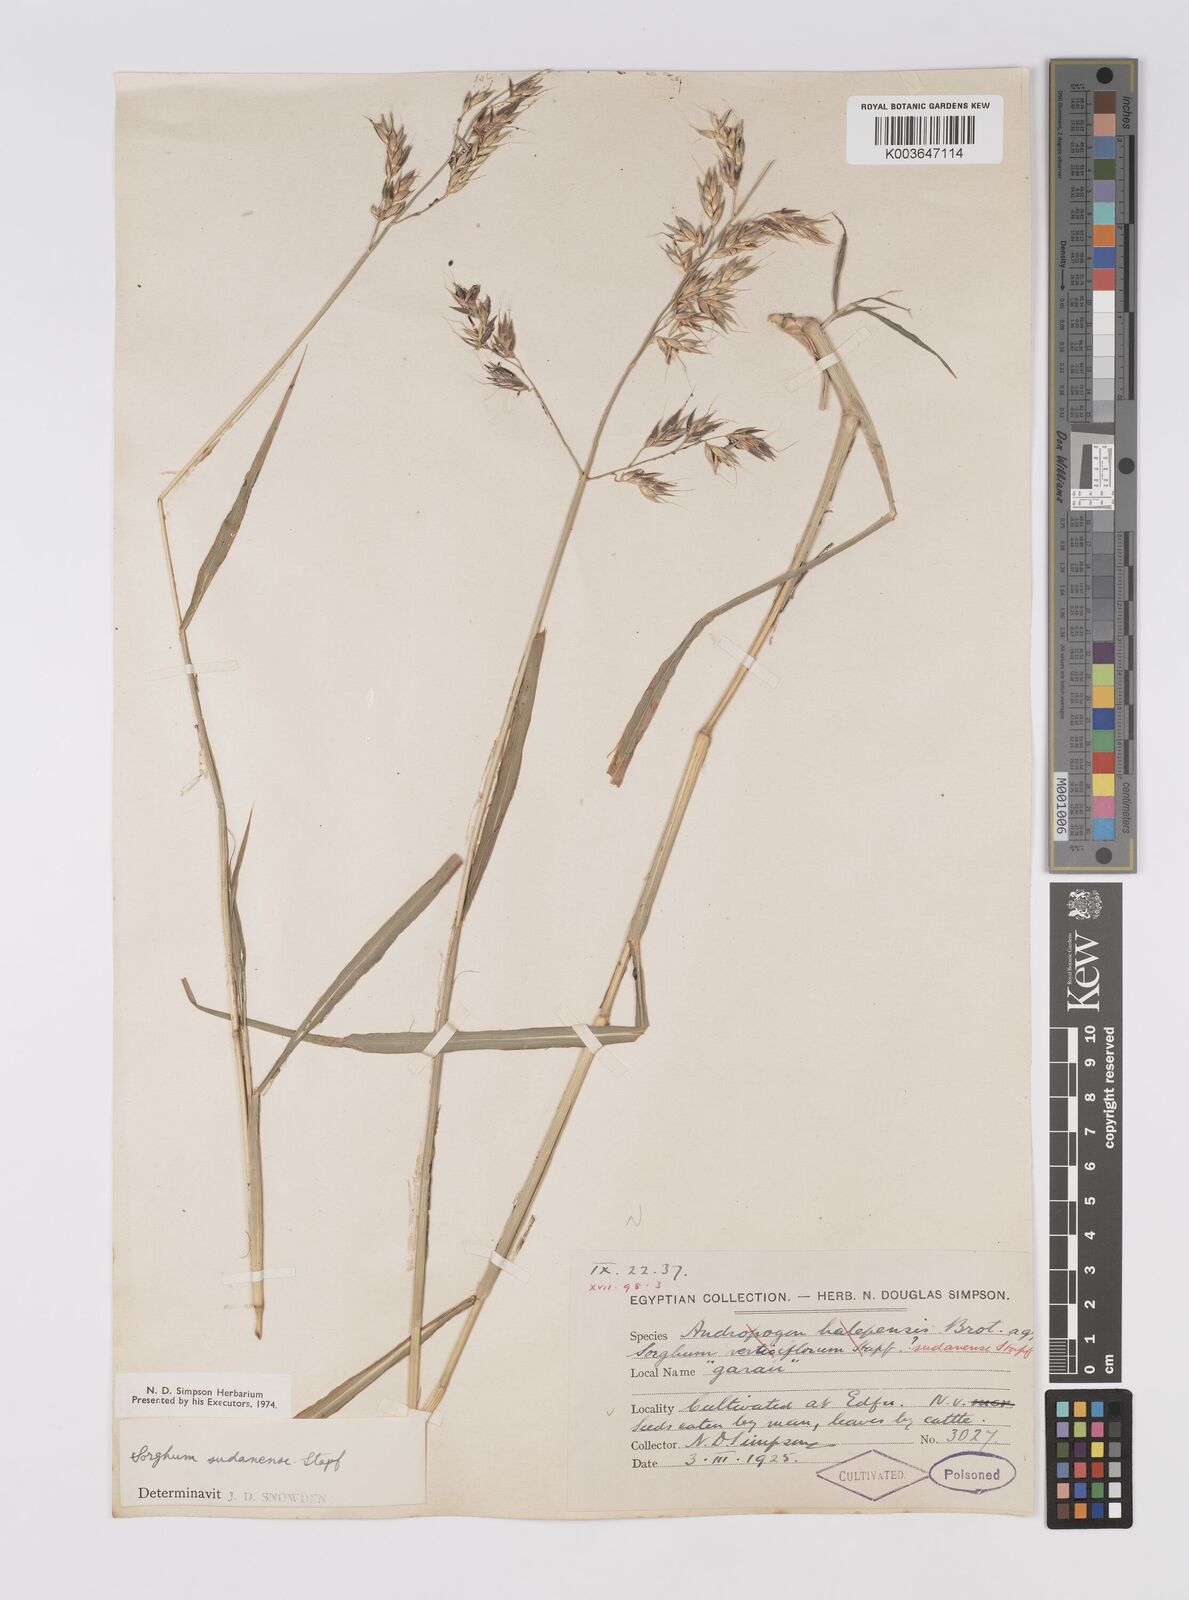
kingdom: Plantae
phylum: Tracheophyta
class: Liliopsida
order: Poales
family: Poaceae
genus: Sorghum
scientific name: Sorghum drummondii
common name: Sudangrass
